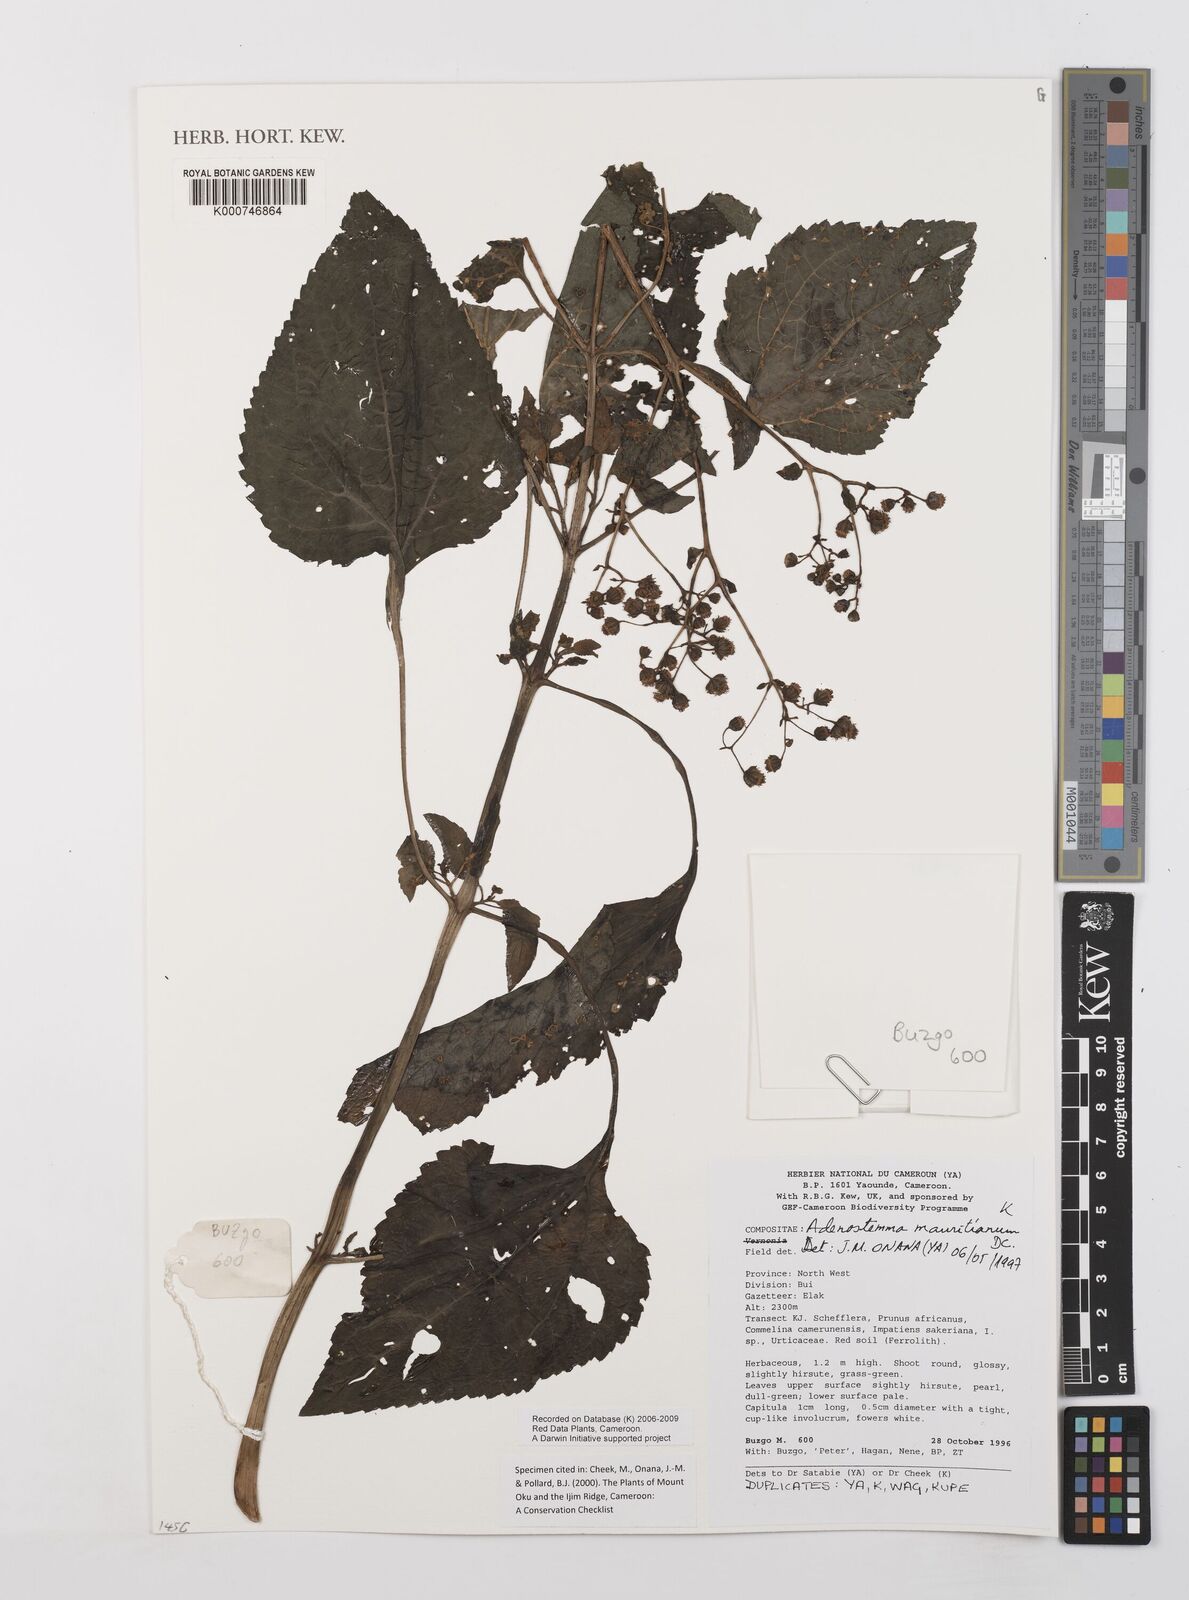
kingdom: Plantae
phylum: Tracheophyta
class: Magnoliopsida
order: Asterales
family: Asteraceae
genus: Adenostemma
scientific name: Adenostemma mauritianum
